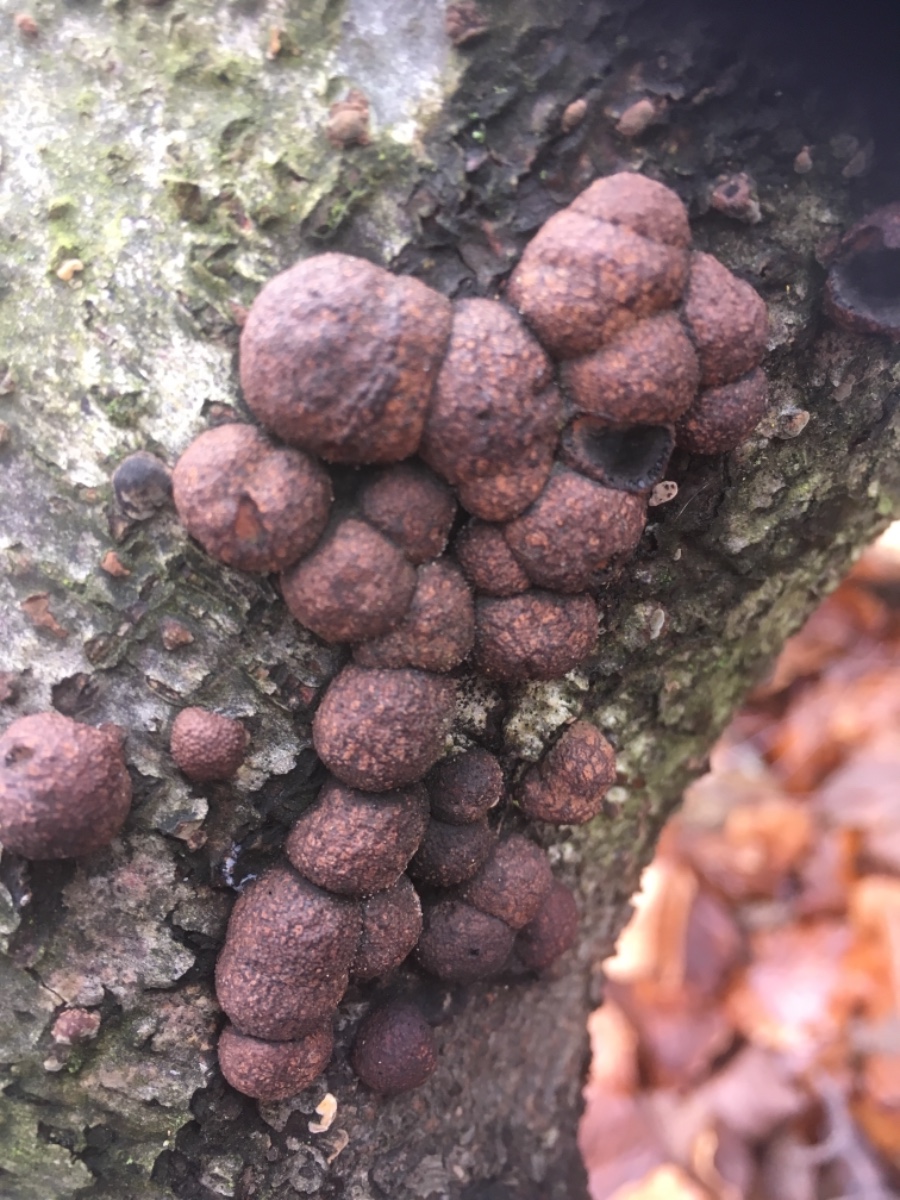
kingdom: Fungi
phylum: Ascomycota
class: Sordariomycetes
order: Xylariales
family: Hypoxylaceae
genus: Hypoxylon
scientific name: Hypoxylon fragiforme
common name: kuljordbær
